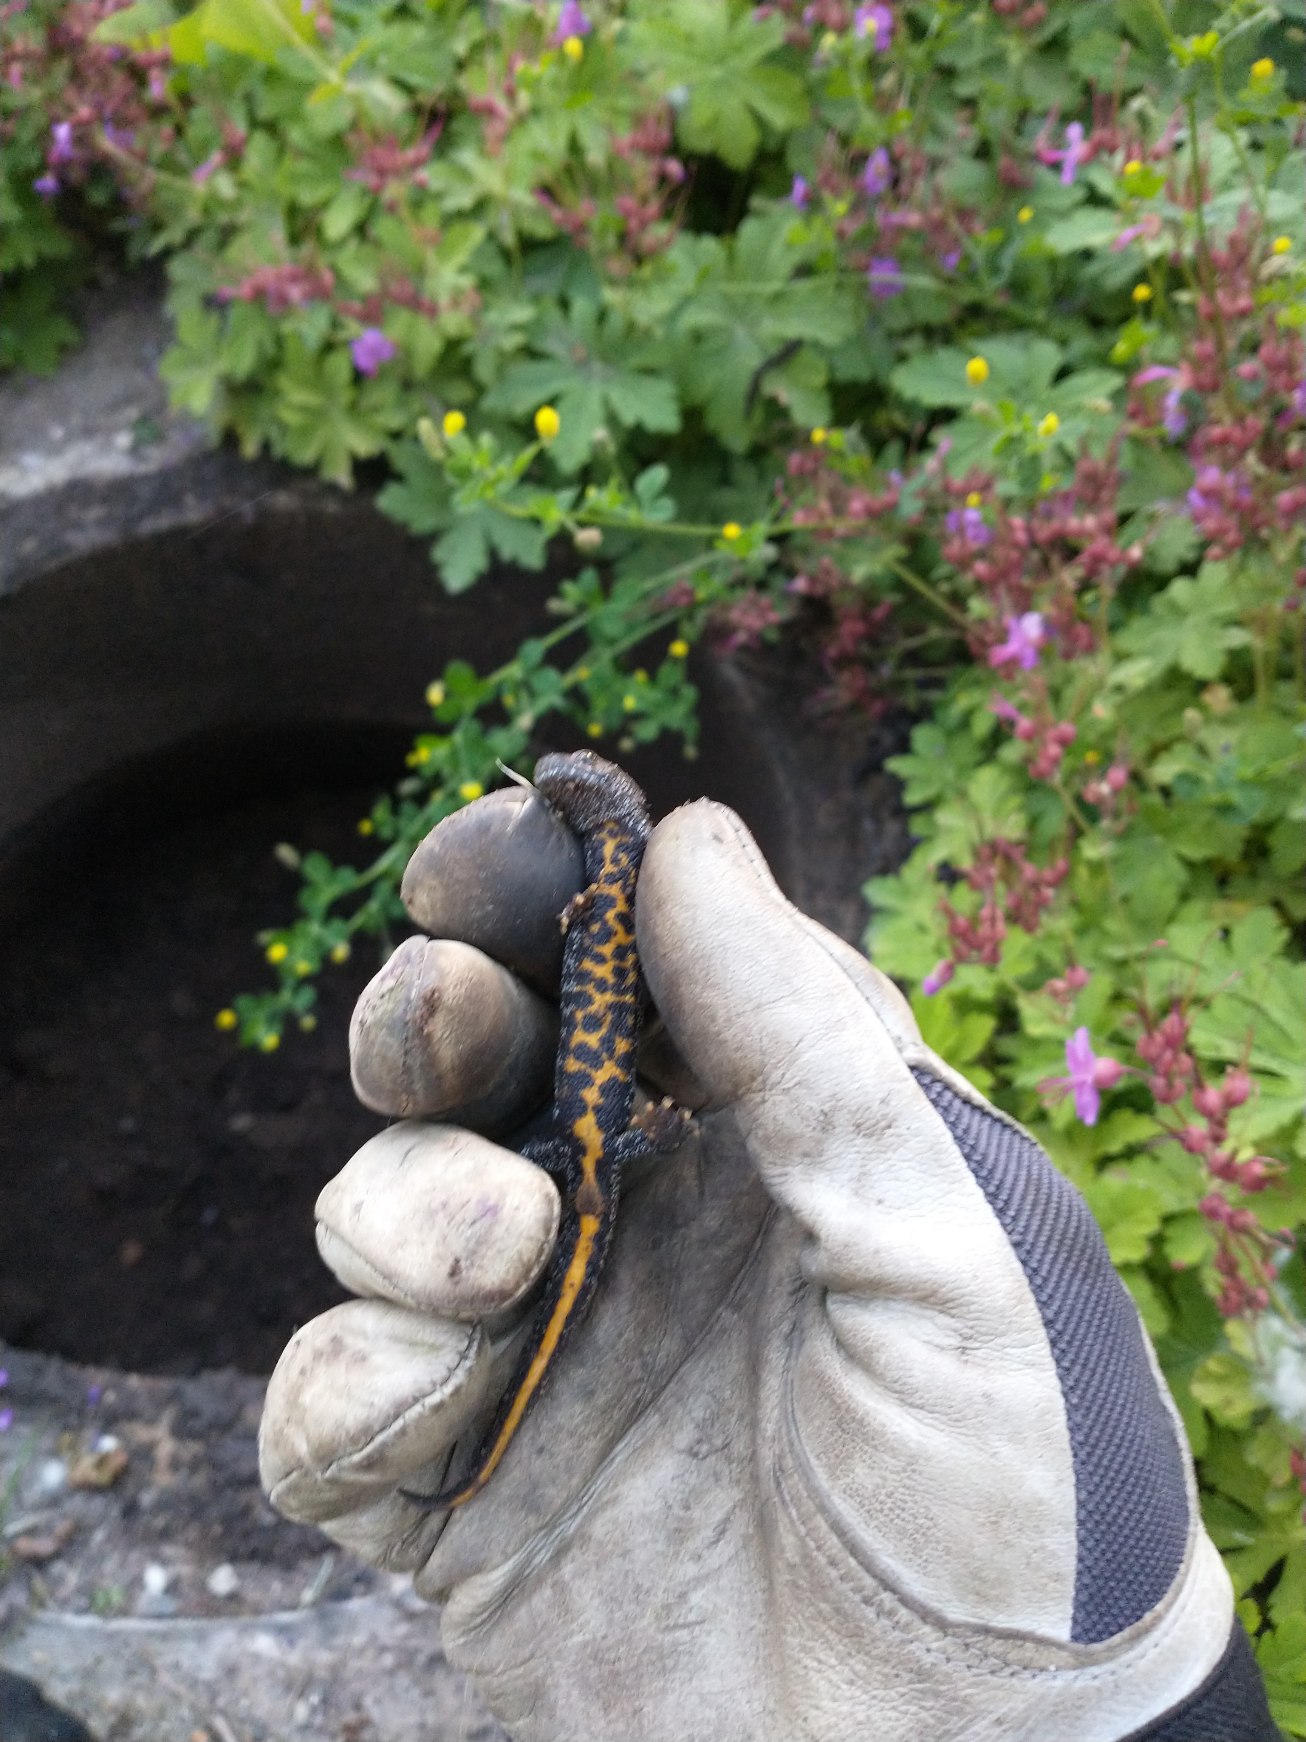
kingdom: Animalia
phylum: Chordata
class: Amphibia
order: Caudata
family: Salamandridae
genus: Triturus
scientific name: Triturus cristatus
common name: Stor vandsalamander
